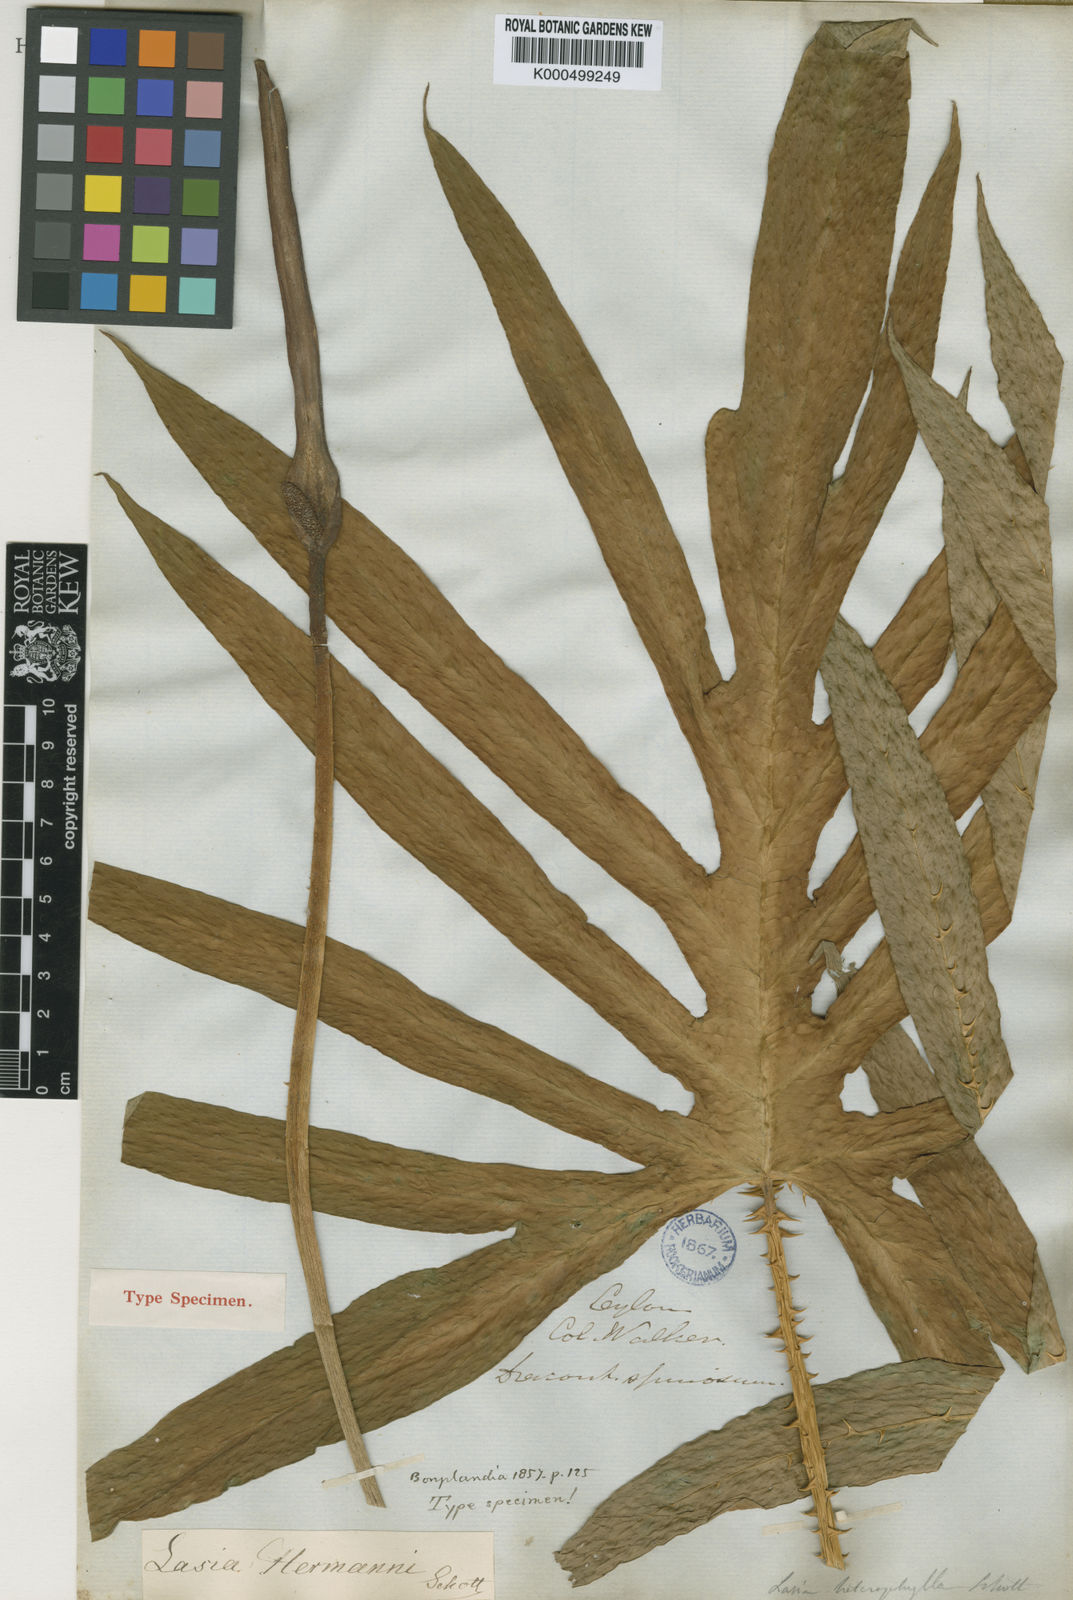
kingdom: Plantae
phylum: Tracheophyta
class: Liliopsida
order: Alismatales
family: Araceae
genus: Lasia
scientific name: Lasia spinosa
